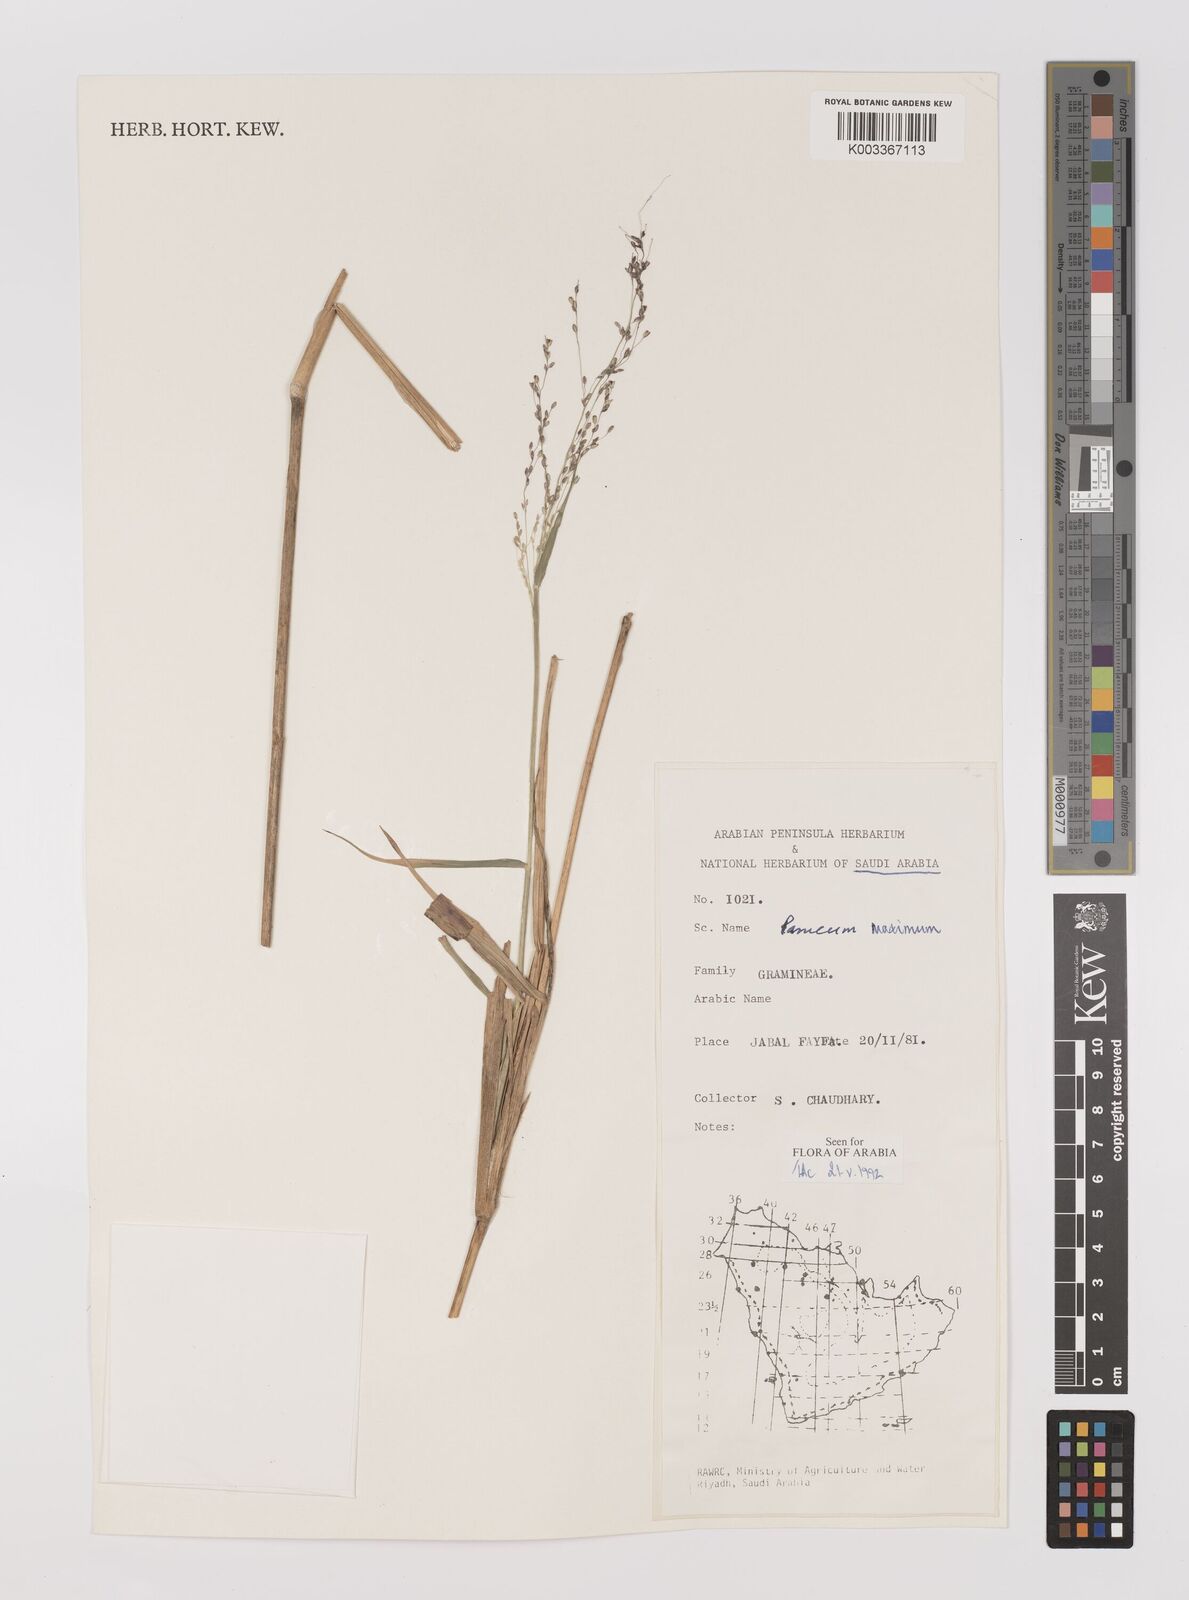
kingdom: Plantae
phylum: Tracheophyta
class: Liliopsida
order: Poales
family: Poaceae
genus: Megathyrsus
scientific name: Megathyrsus maximus
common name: Guineagrass
